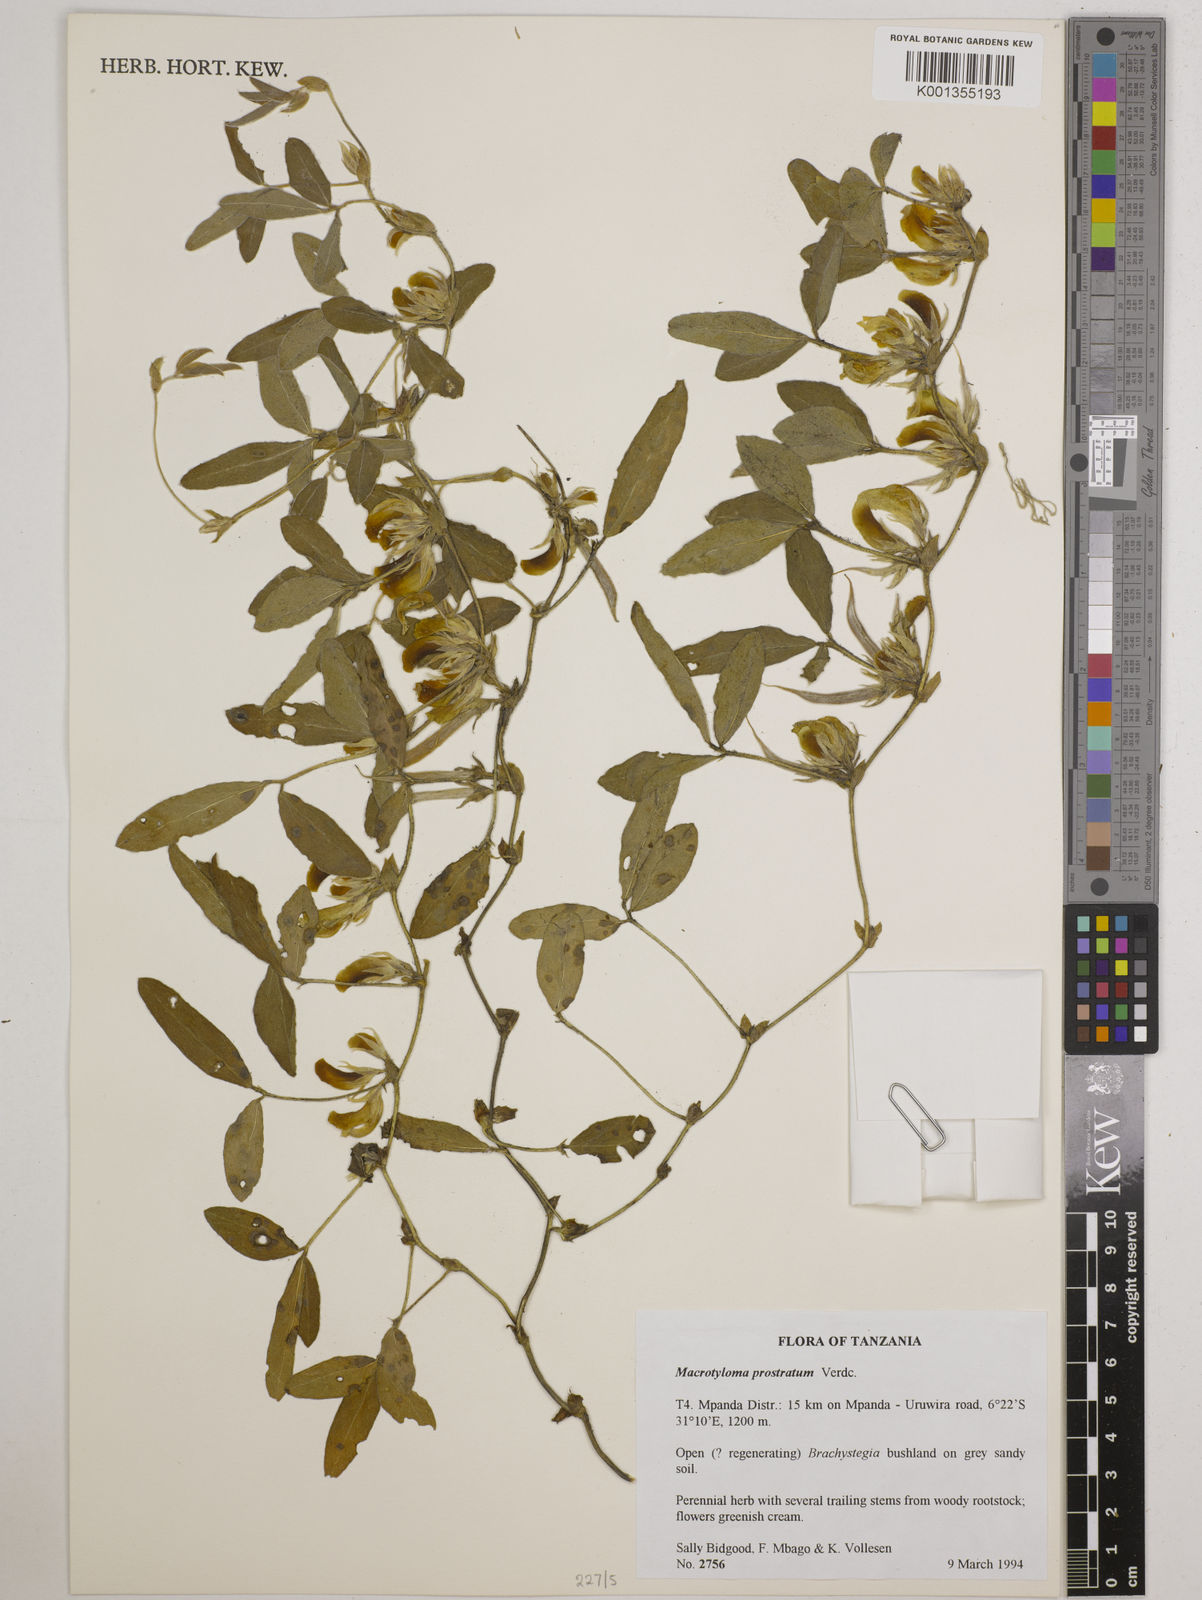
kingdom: Plantae
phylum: Tracheophyta
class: Magnoliopsida
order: Fabales
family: Fabaceae
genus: Macrotyloma
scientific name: Macrotyloma prostratum
